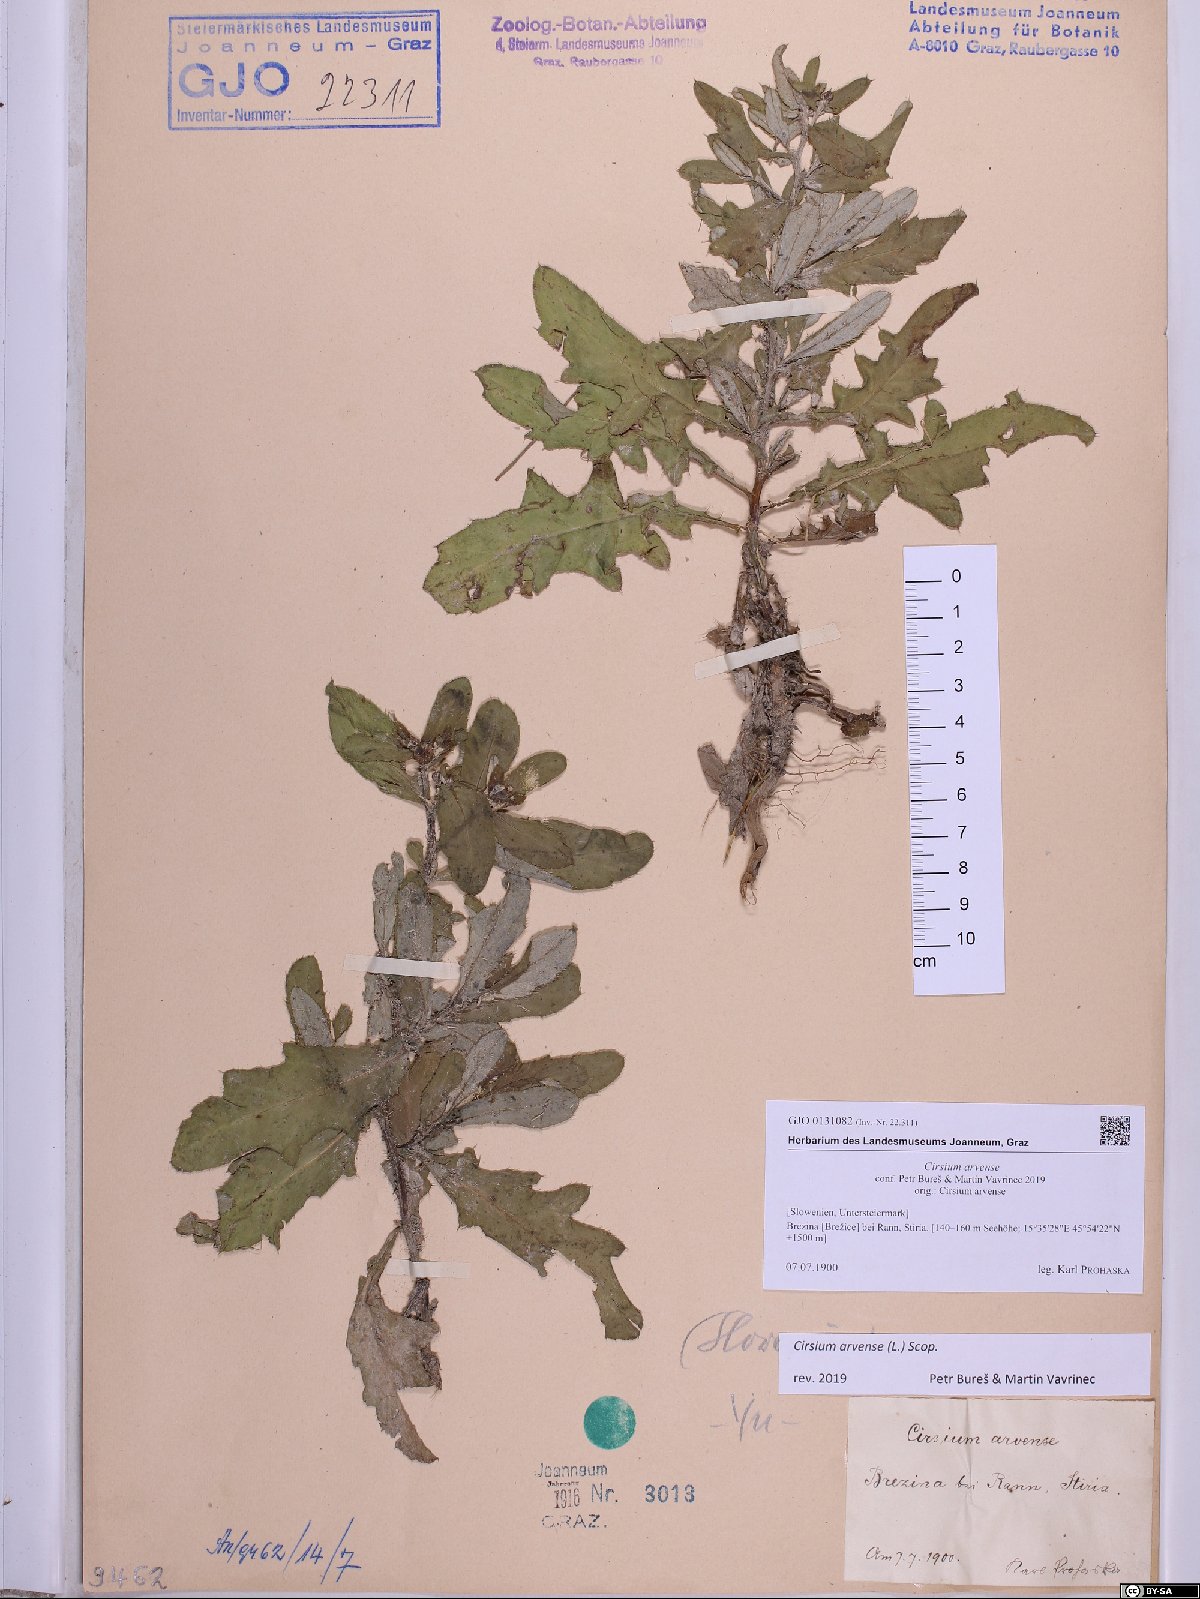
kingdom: Plantae
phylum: Tracheophyta
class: Magnoliopsida
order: Asterales
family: Asteraceae
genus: Cirsium
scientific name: Cirsium arvense
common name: Creeping thistle
